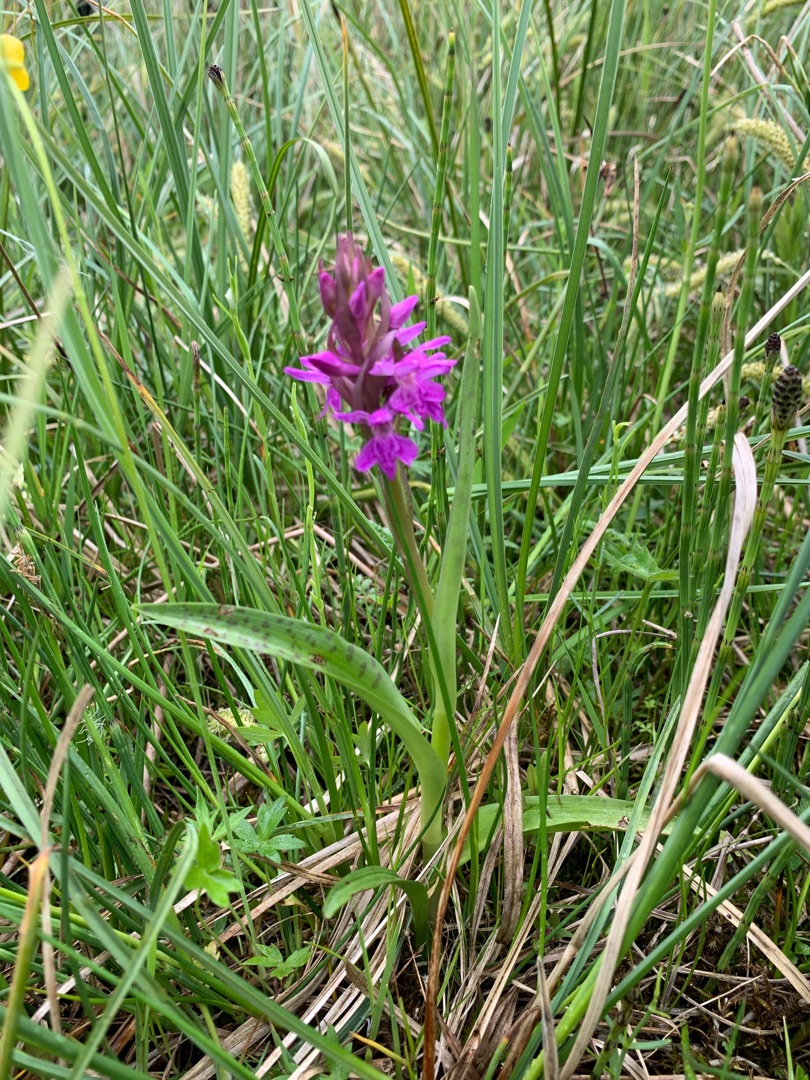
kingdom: Plantae
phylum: Tracheophyta
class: Liliopsida
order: Asparagales
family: Orchidaceae
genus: Dactylorhiza
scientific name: Dactylorhiza majalis
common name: Maj-gøgeurt
